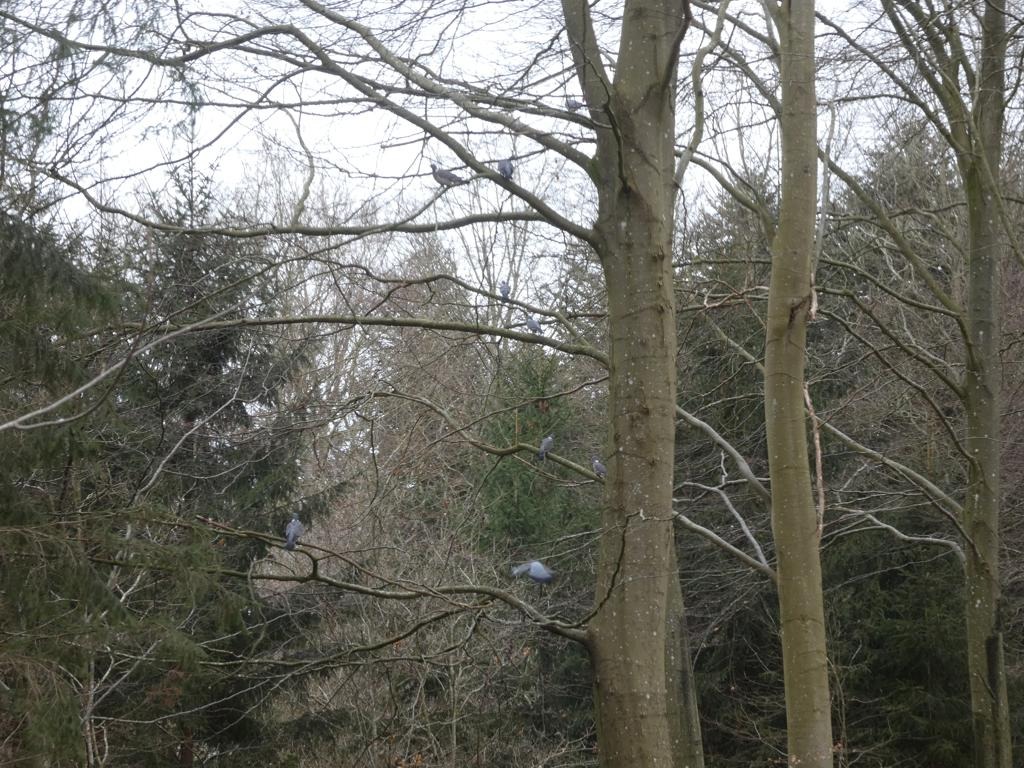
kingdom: Animalia
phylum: Chordata
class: Aves
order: Columbiformes
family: Columbidae
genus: Columba
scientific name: Columba palumbus
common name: Ringdue
